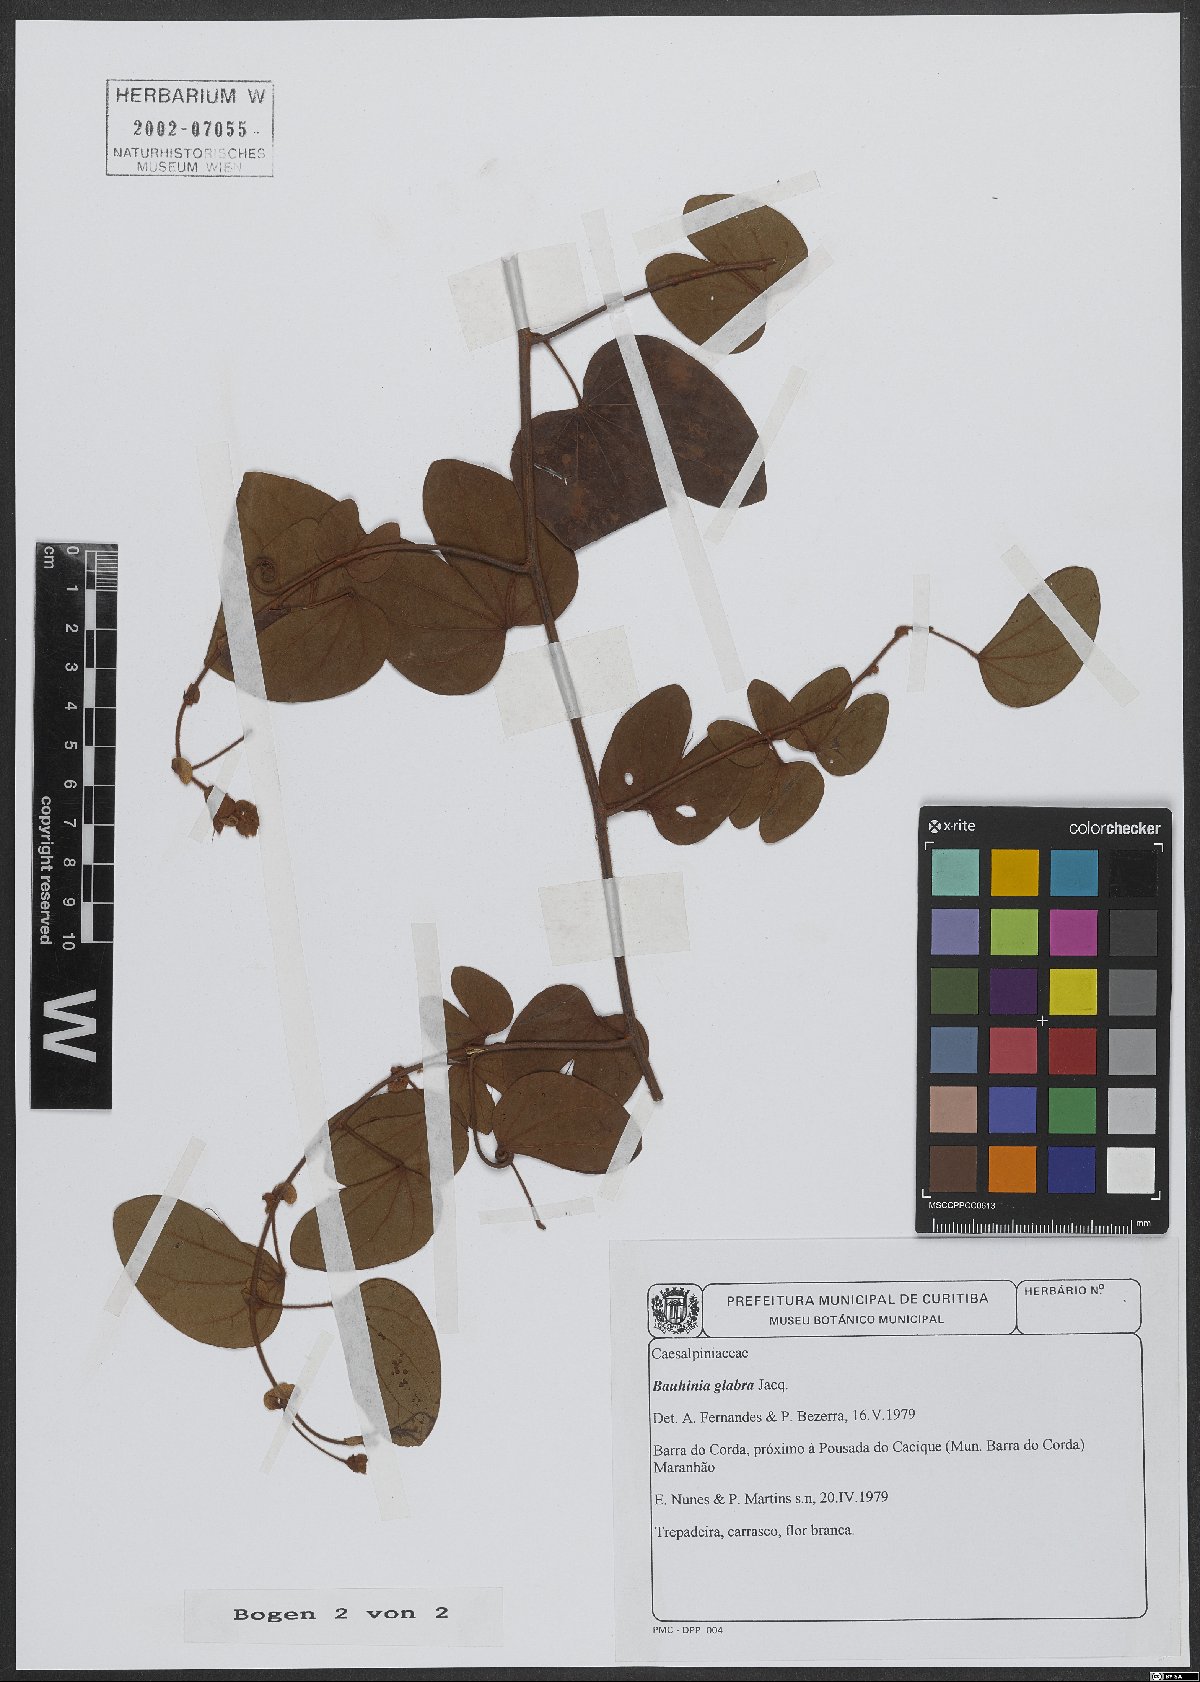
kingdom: Plantae
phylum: Tracheophyta
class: Magnoliopsida
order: Fabales
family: Fabaceae
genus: Schnella
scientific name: Schnella glabra
